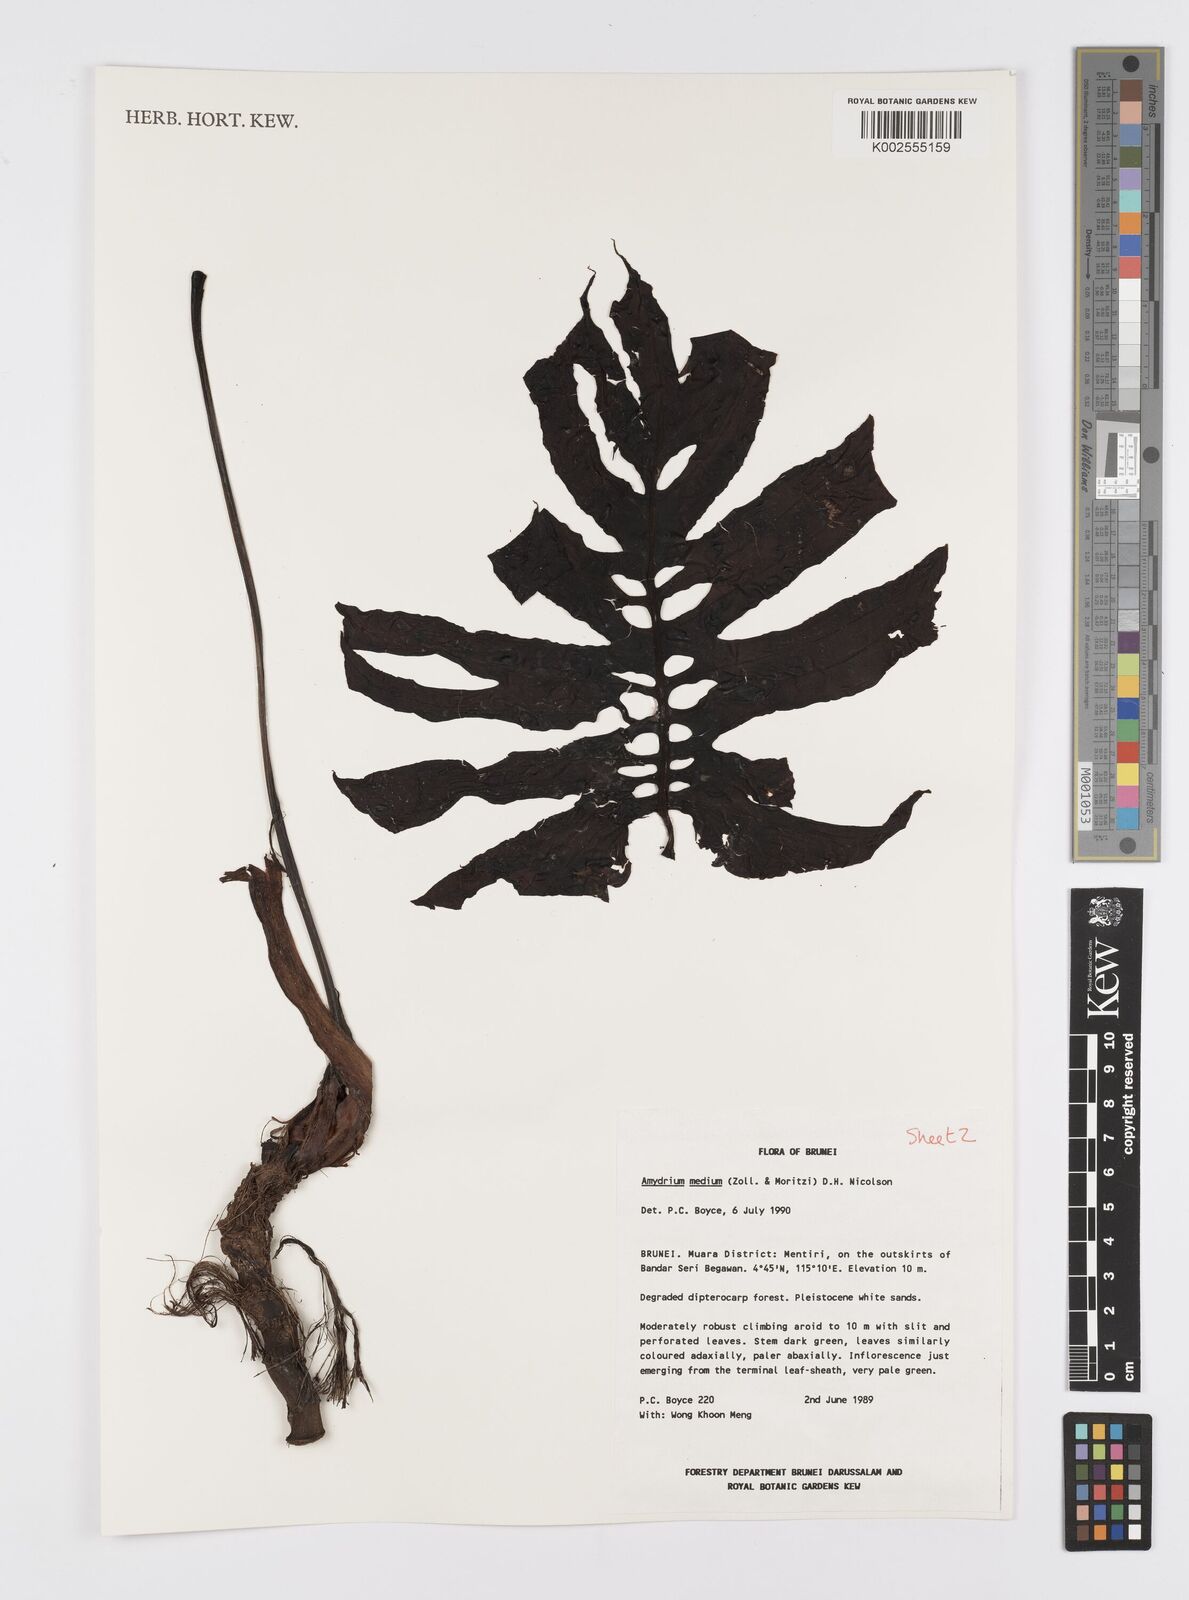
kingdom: Plantae
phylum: Tracheophyta
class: Liliopsida
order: Alismatales
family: Araceae
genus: Amydrium
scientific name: Amydrium medium
